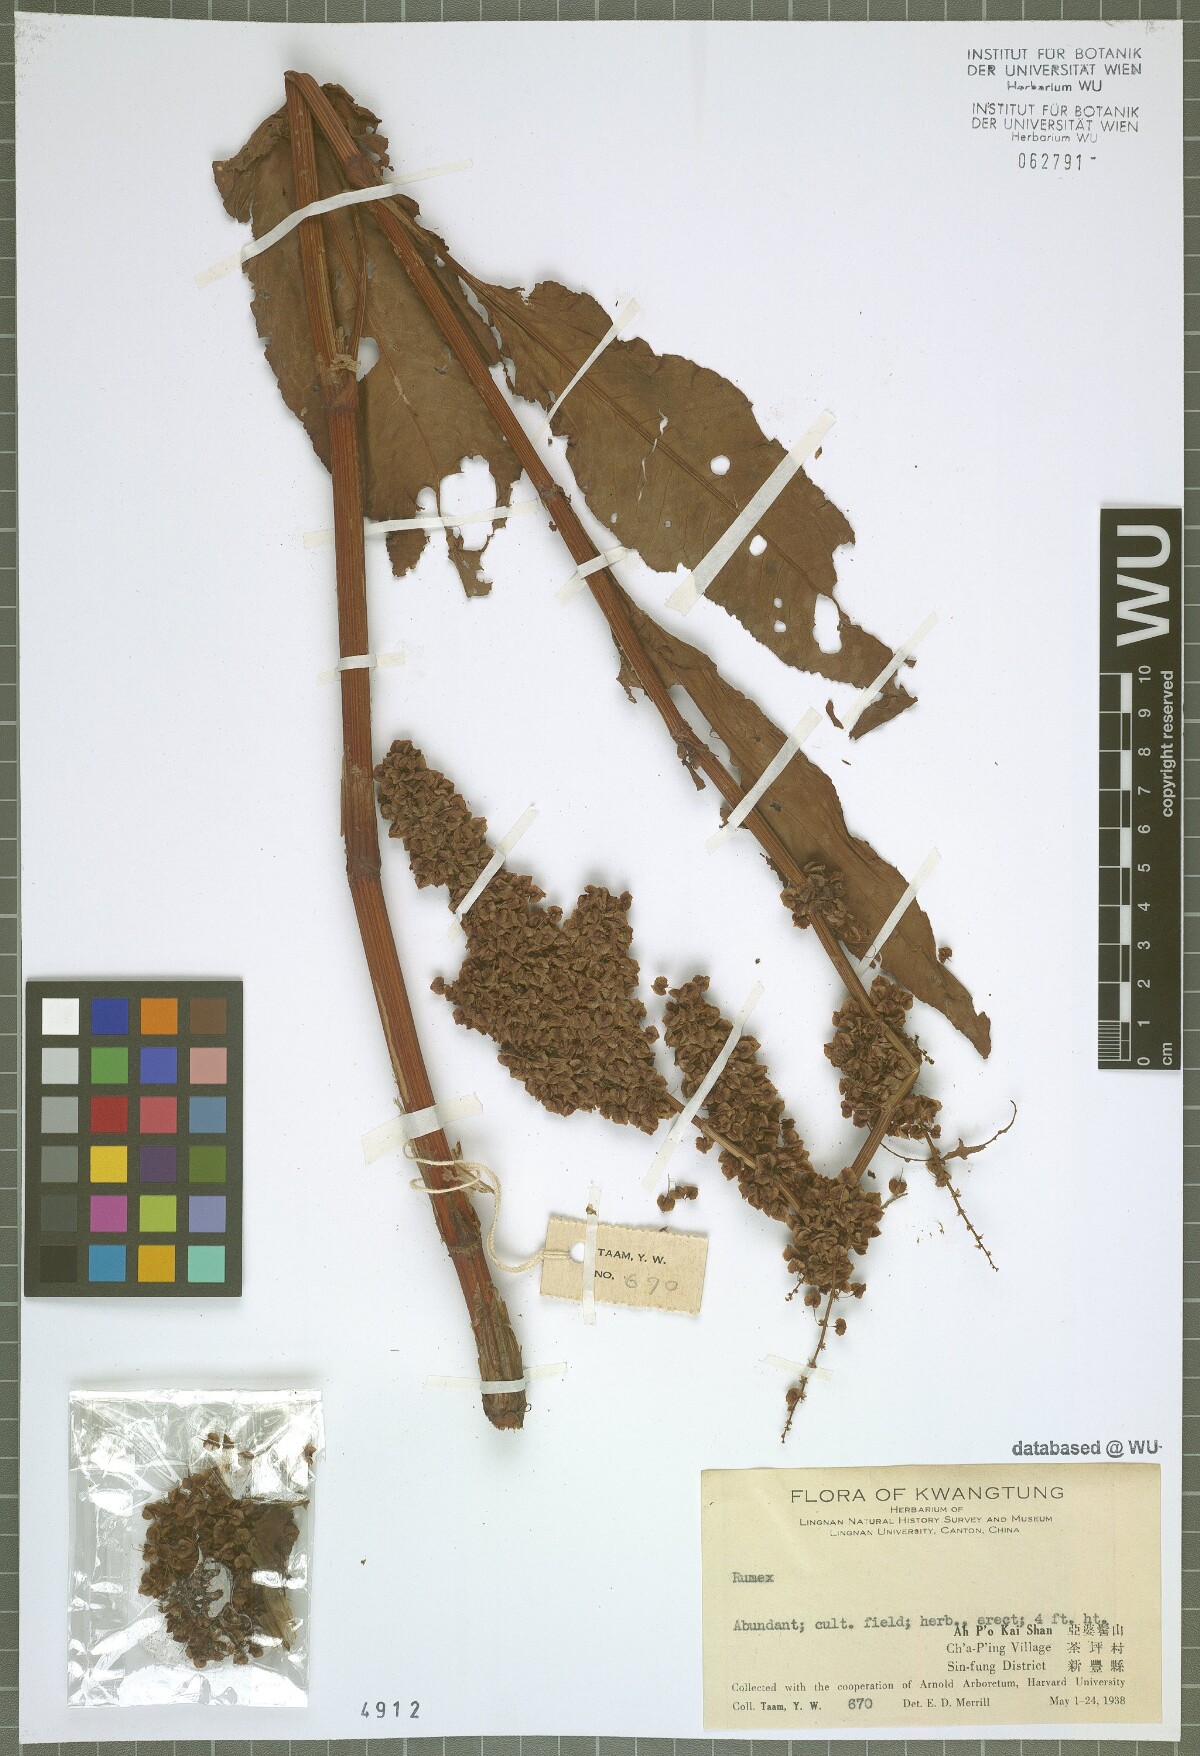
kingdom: Plantae
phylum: Tracheophyta
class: Magnoliopsida
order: Caryophyllales
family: Polygonaceae
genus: Rumex
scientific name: Rumex
